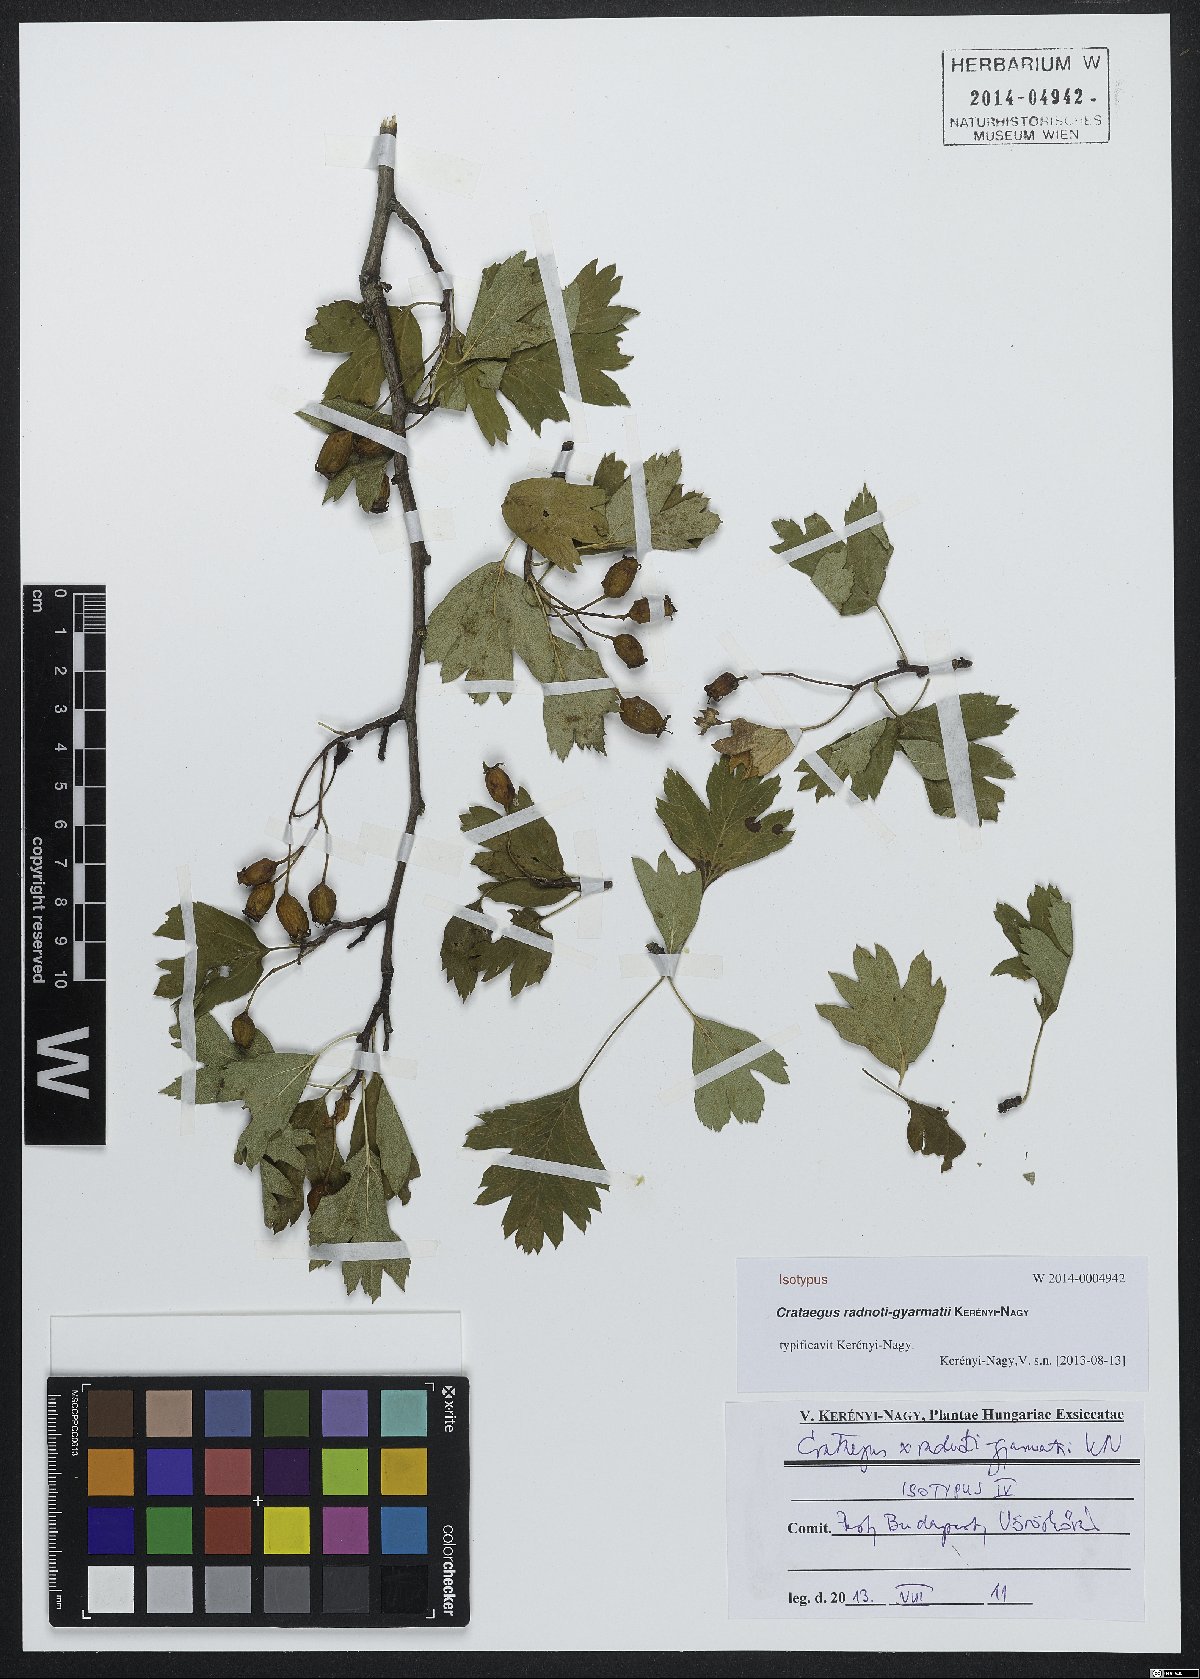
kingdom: Plantae
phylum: Tracheophyta
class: Magnoliopsida
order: Rosales
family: Rosaceae
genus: Crataegus
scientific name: Crataegus radnoti-gyarmatii
